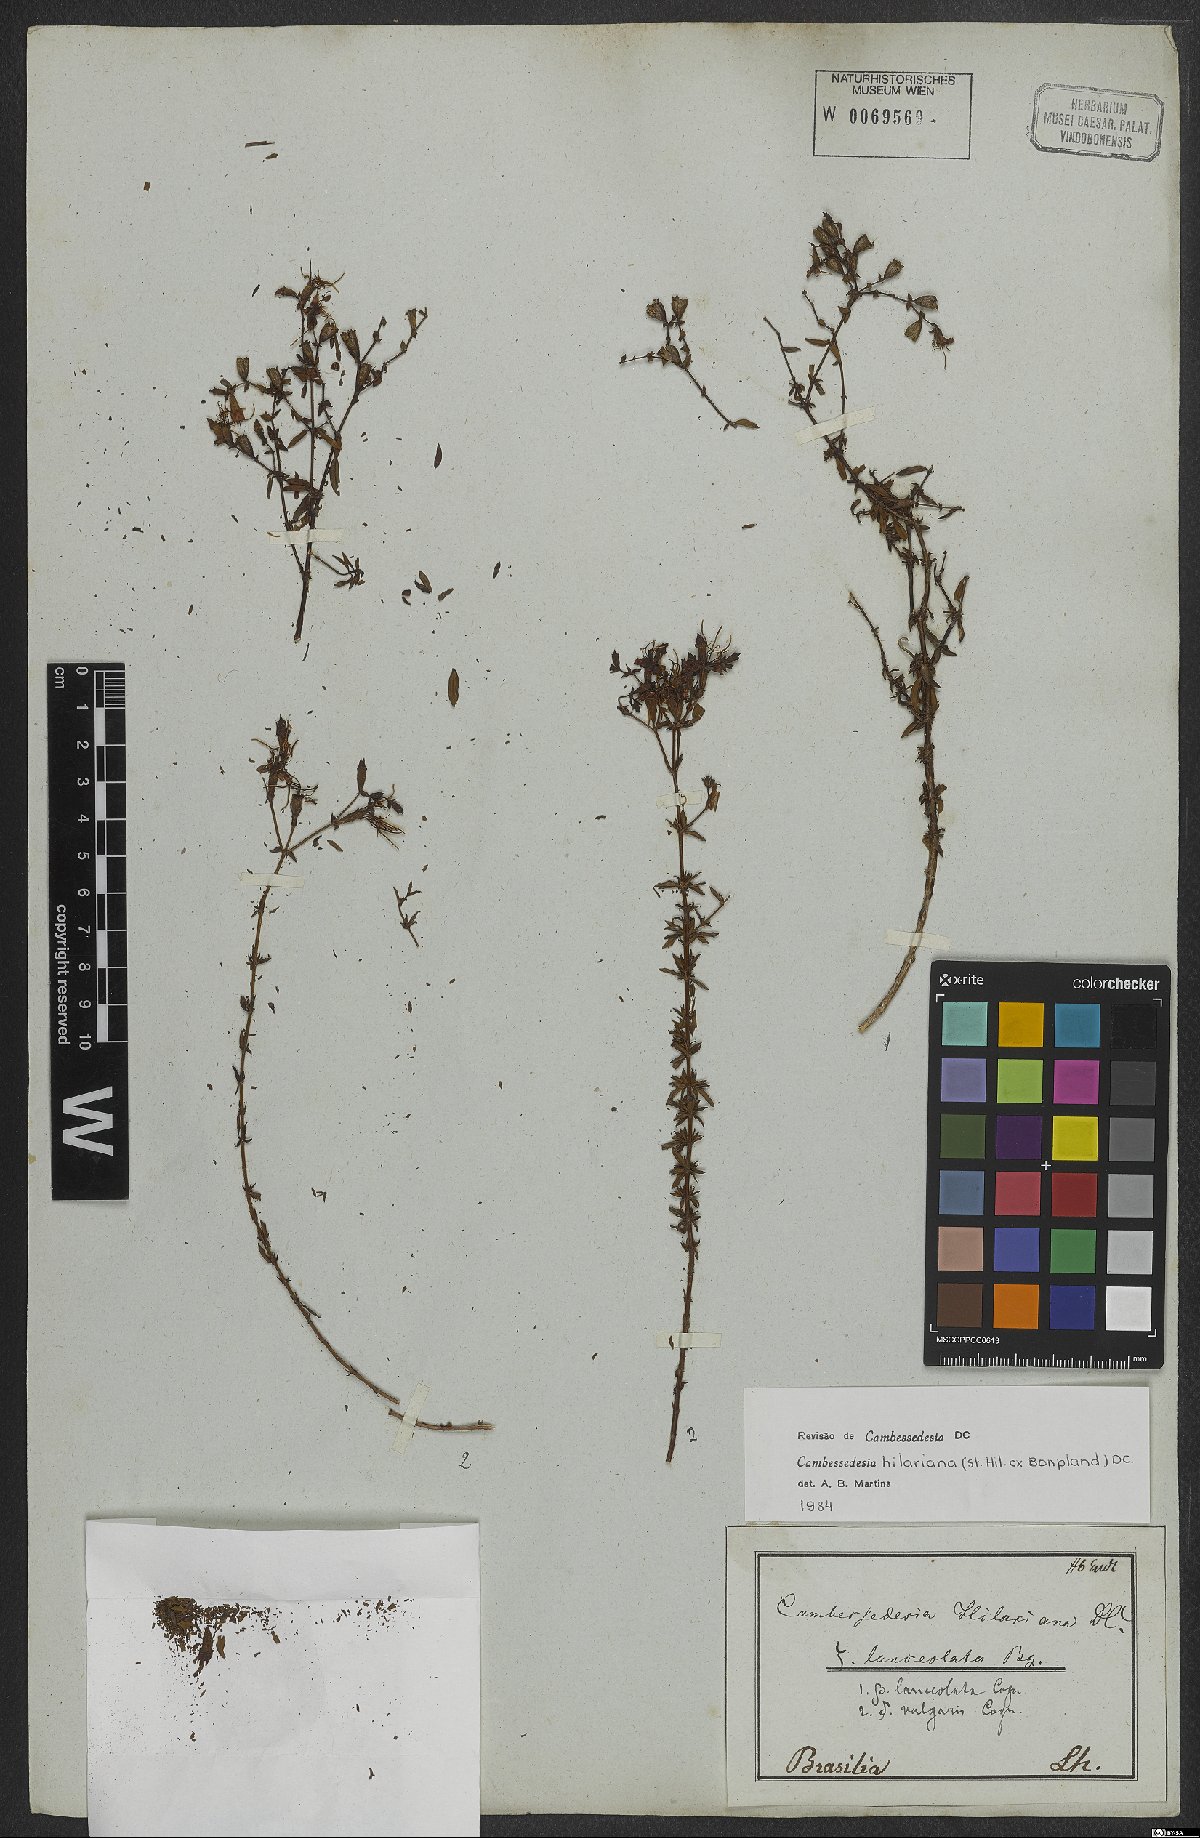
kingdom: Plantae
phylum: Tracheophyta
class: Magnoliopsida
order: Myrtales
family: Melastomataceae
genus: Cambessedesia
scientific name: Cambessedesia hilariana
